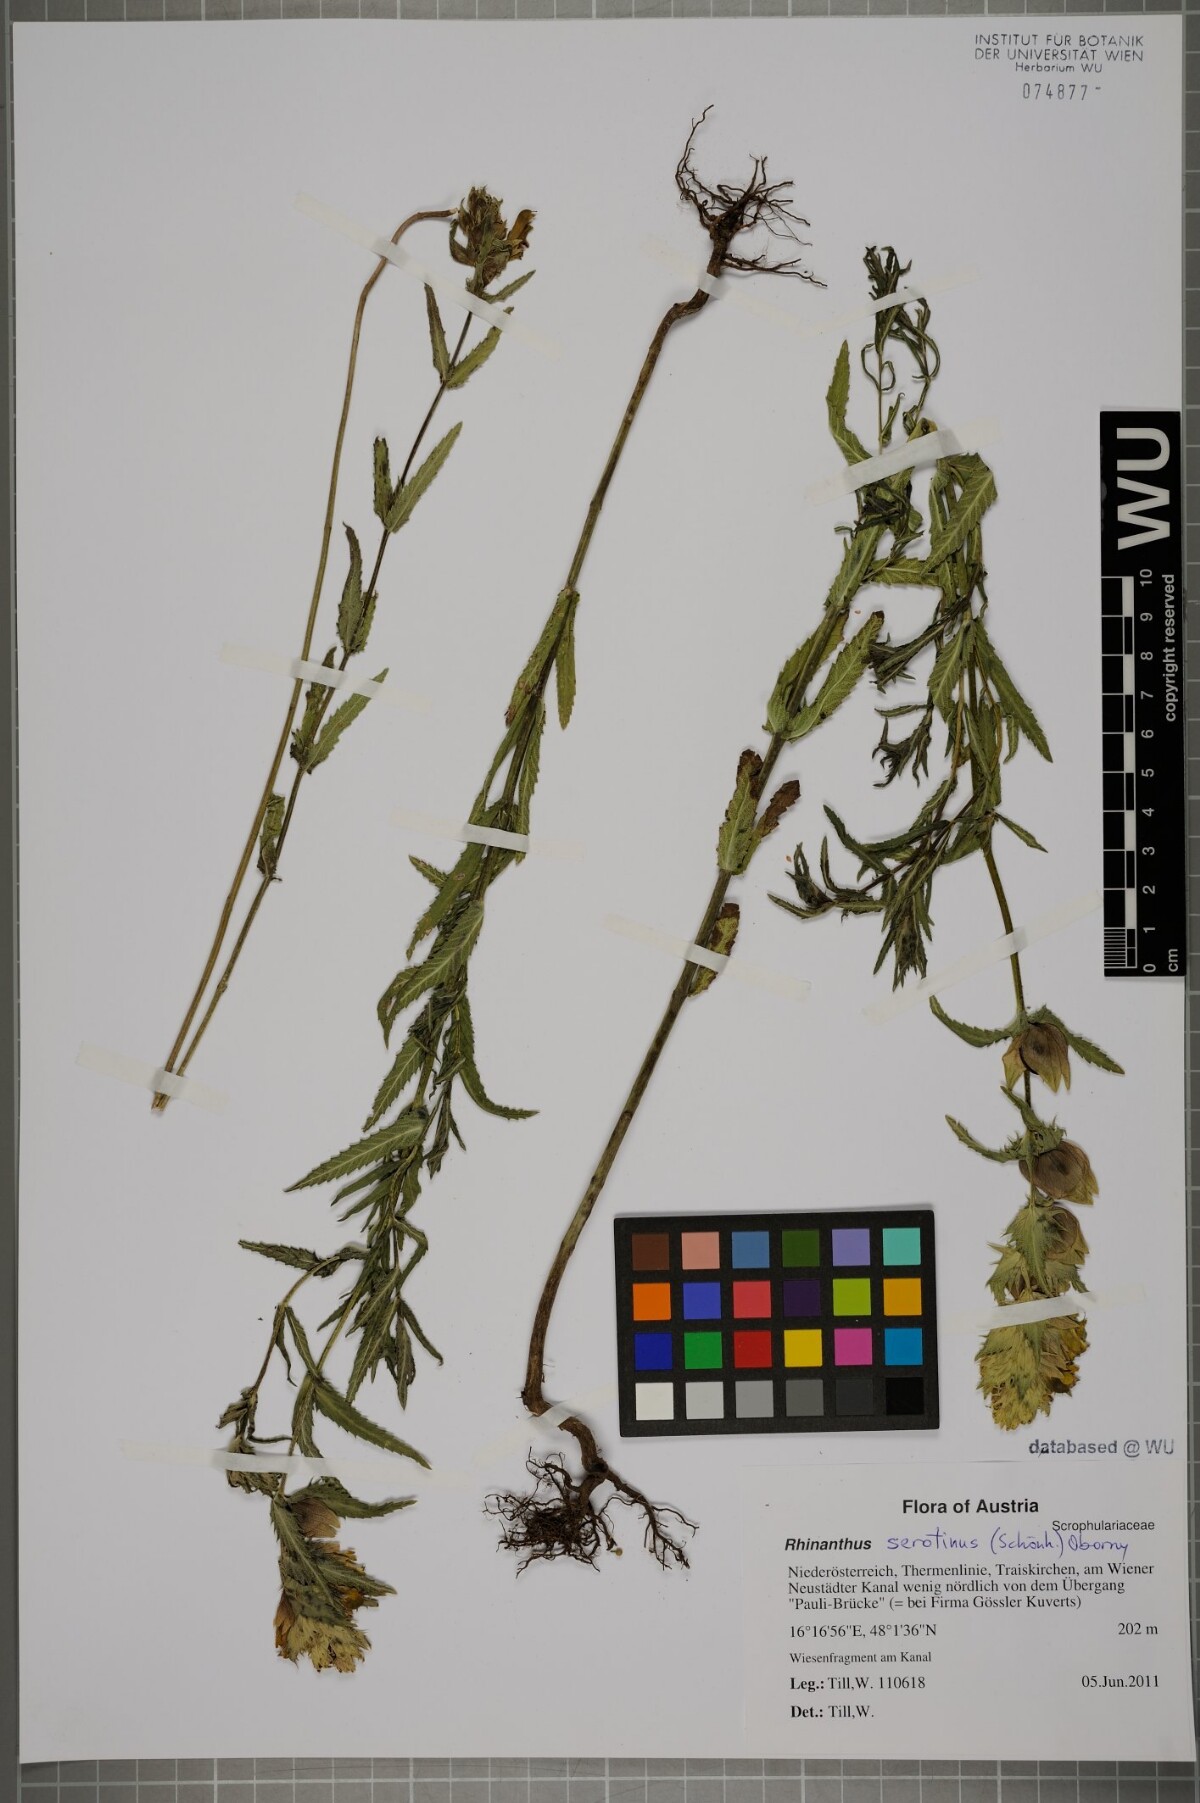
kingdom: Plantae
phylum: Tracheophyta
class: Magnoliopsida
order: Lamiales
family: Orobanchaceae
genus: Rhinanthus
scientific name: Rhinanthus serotinus
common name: Late-flowering yellow rattle
